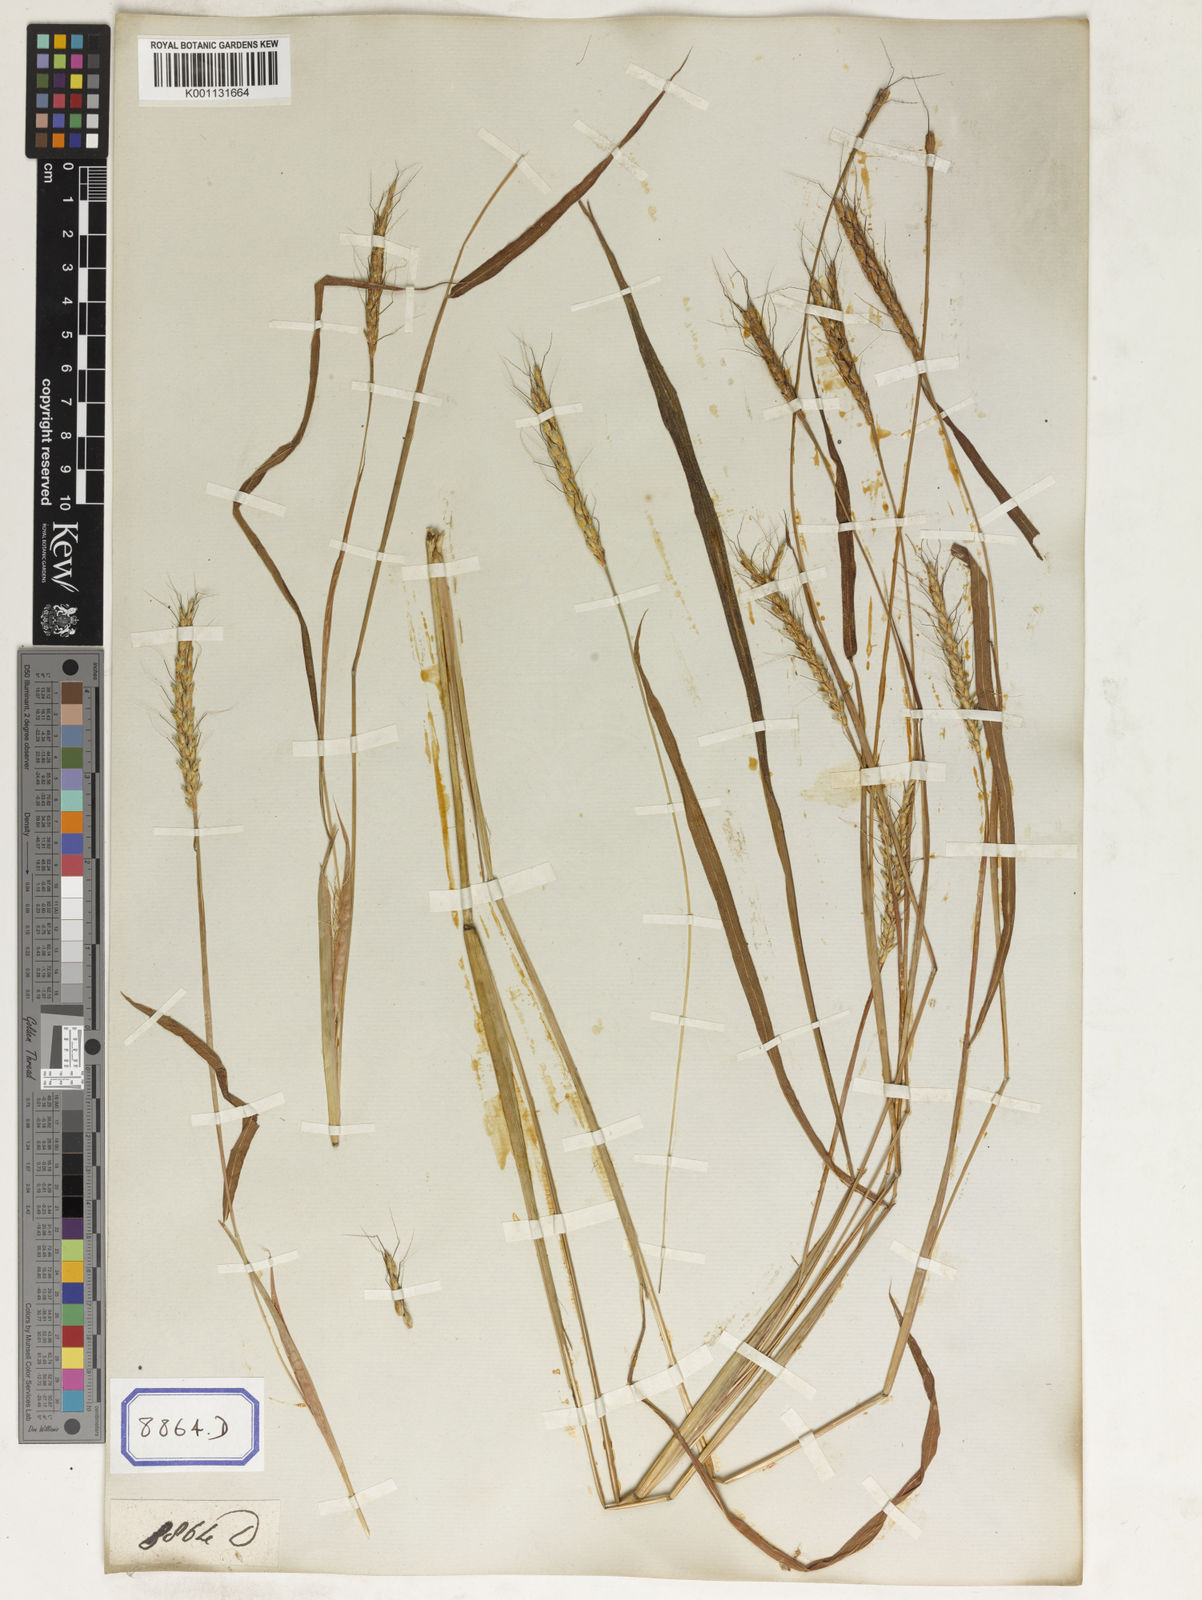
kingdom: Plantae
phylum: Tracheophyta
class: Liliopsida
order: Poales
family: Poaceae
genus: Ischaemum
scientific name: Ischaemum rugosum
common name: Saramatta grass
